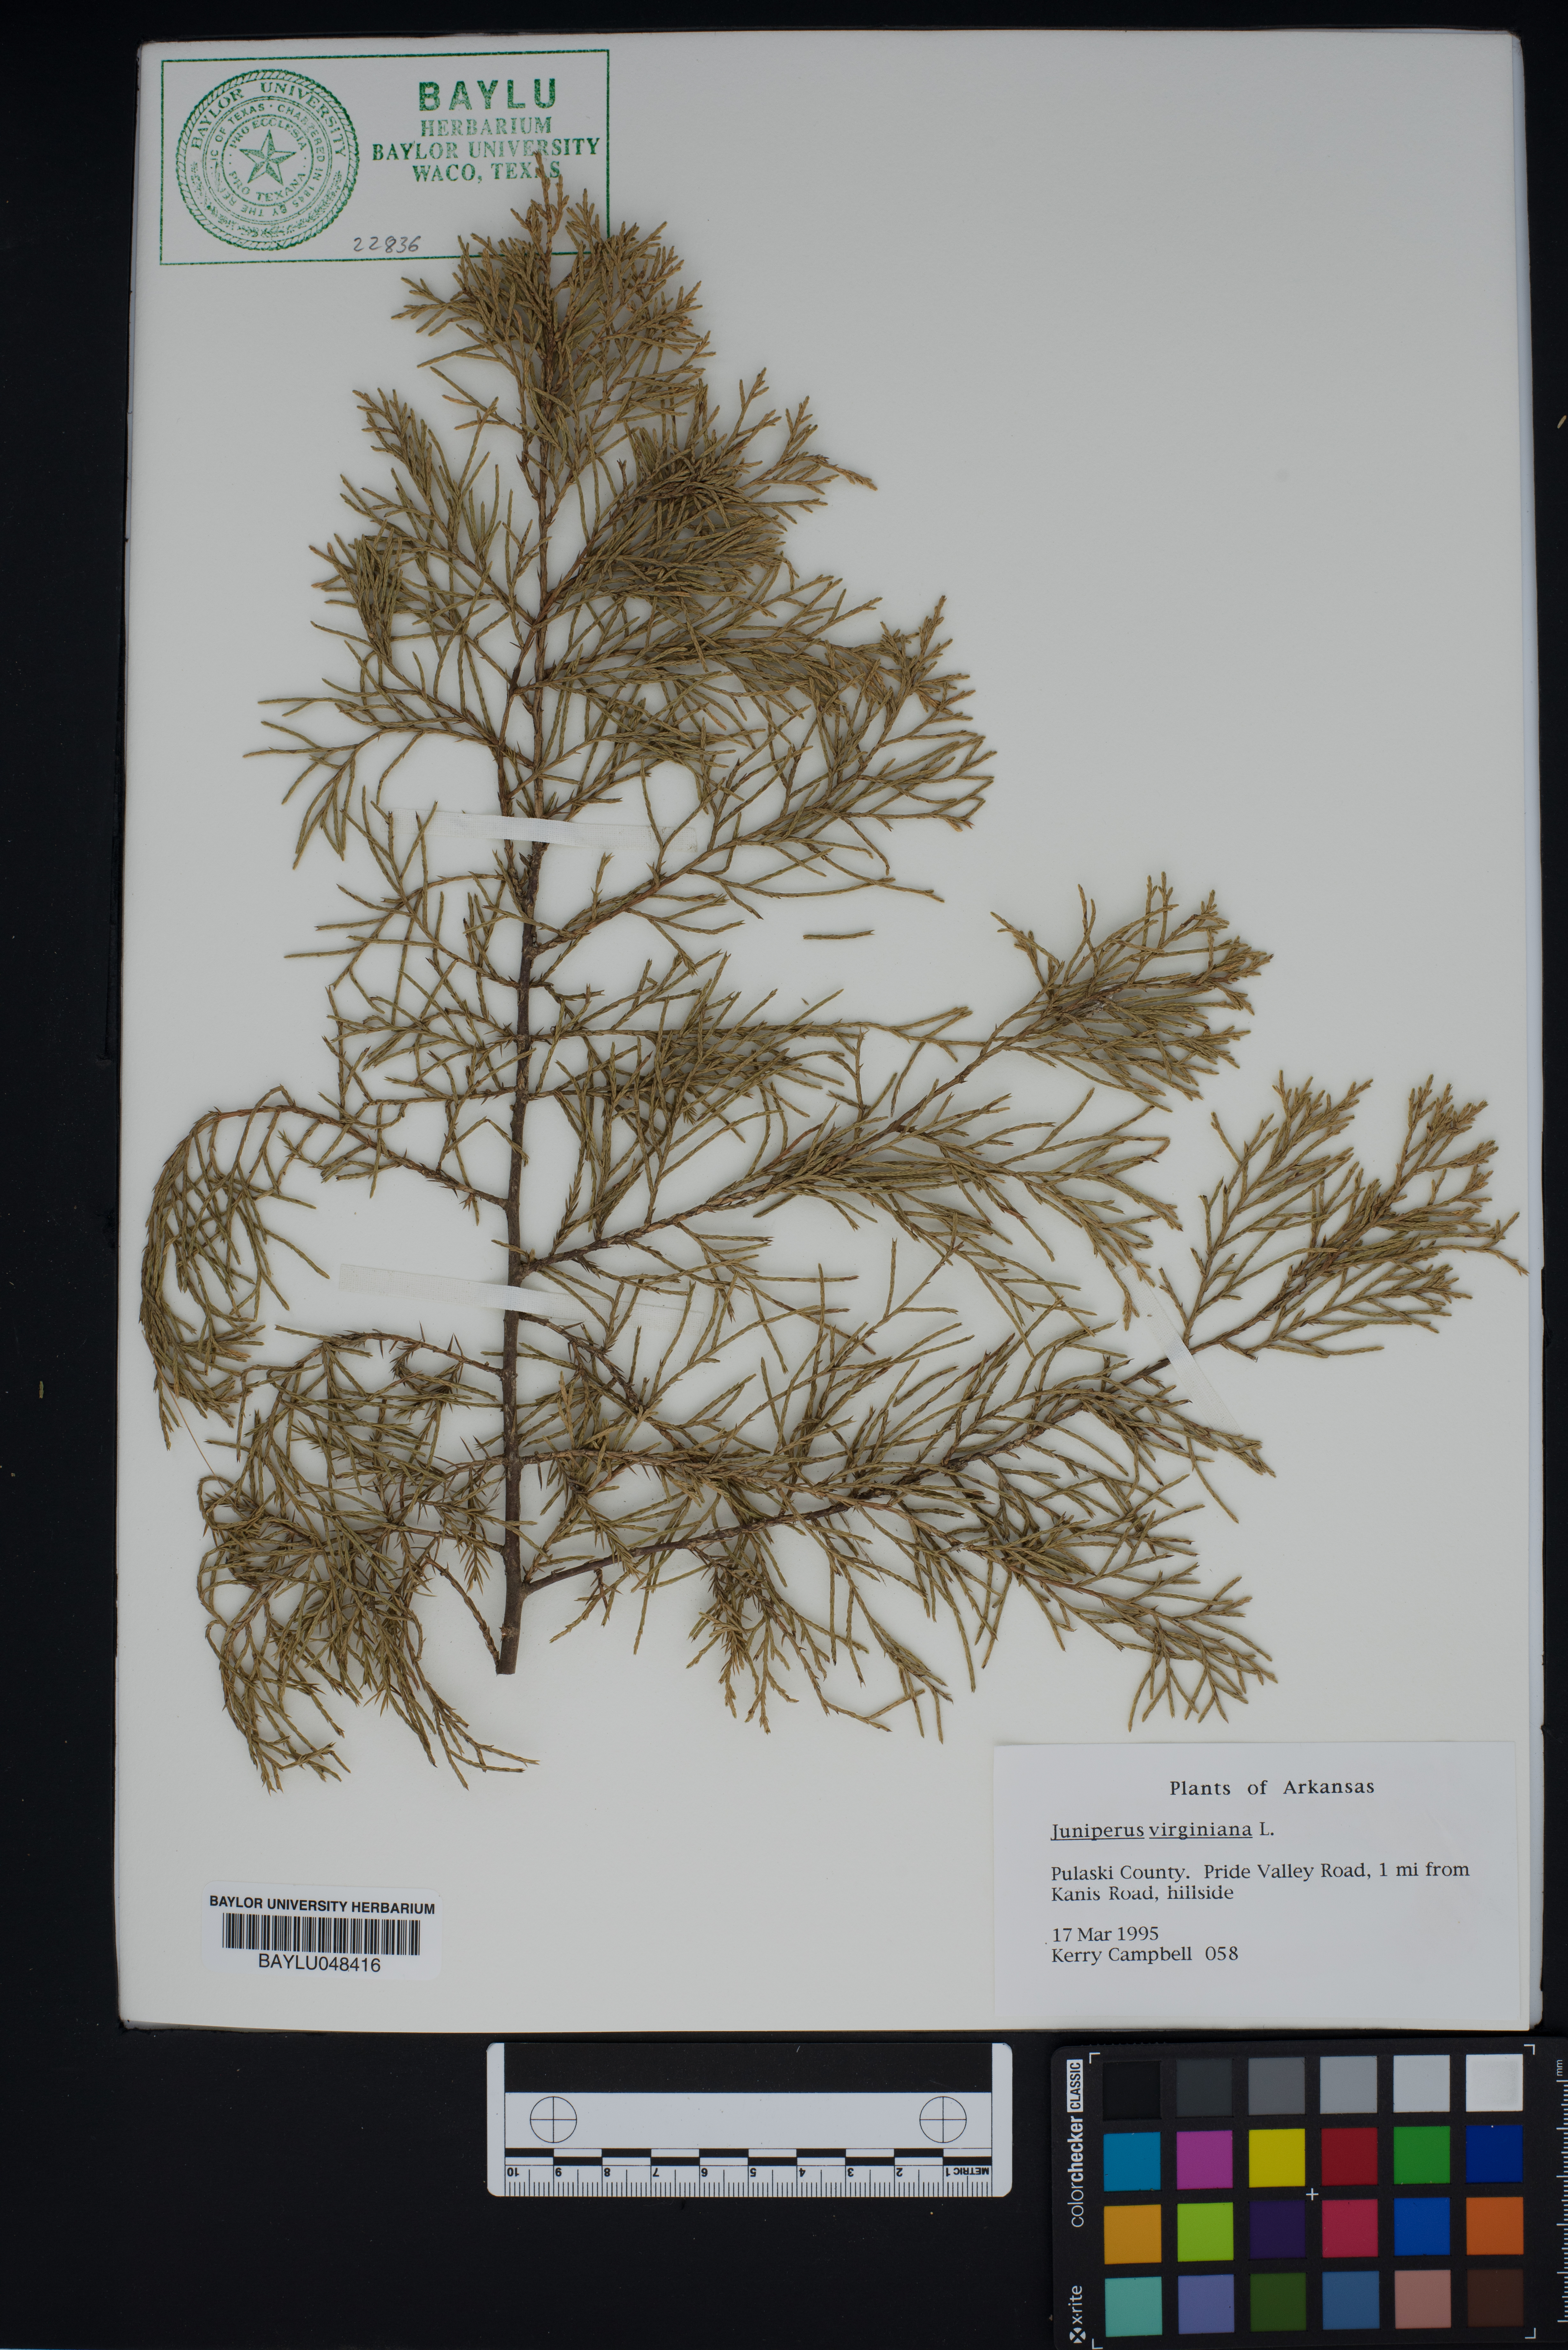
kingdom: Plantae
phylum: Tracheophyta
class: Pinopsida
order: Pinales
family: Cupressaceae
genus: Juniperus
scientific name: Juniperus virginiana
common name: Red juniper
